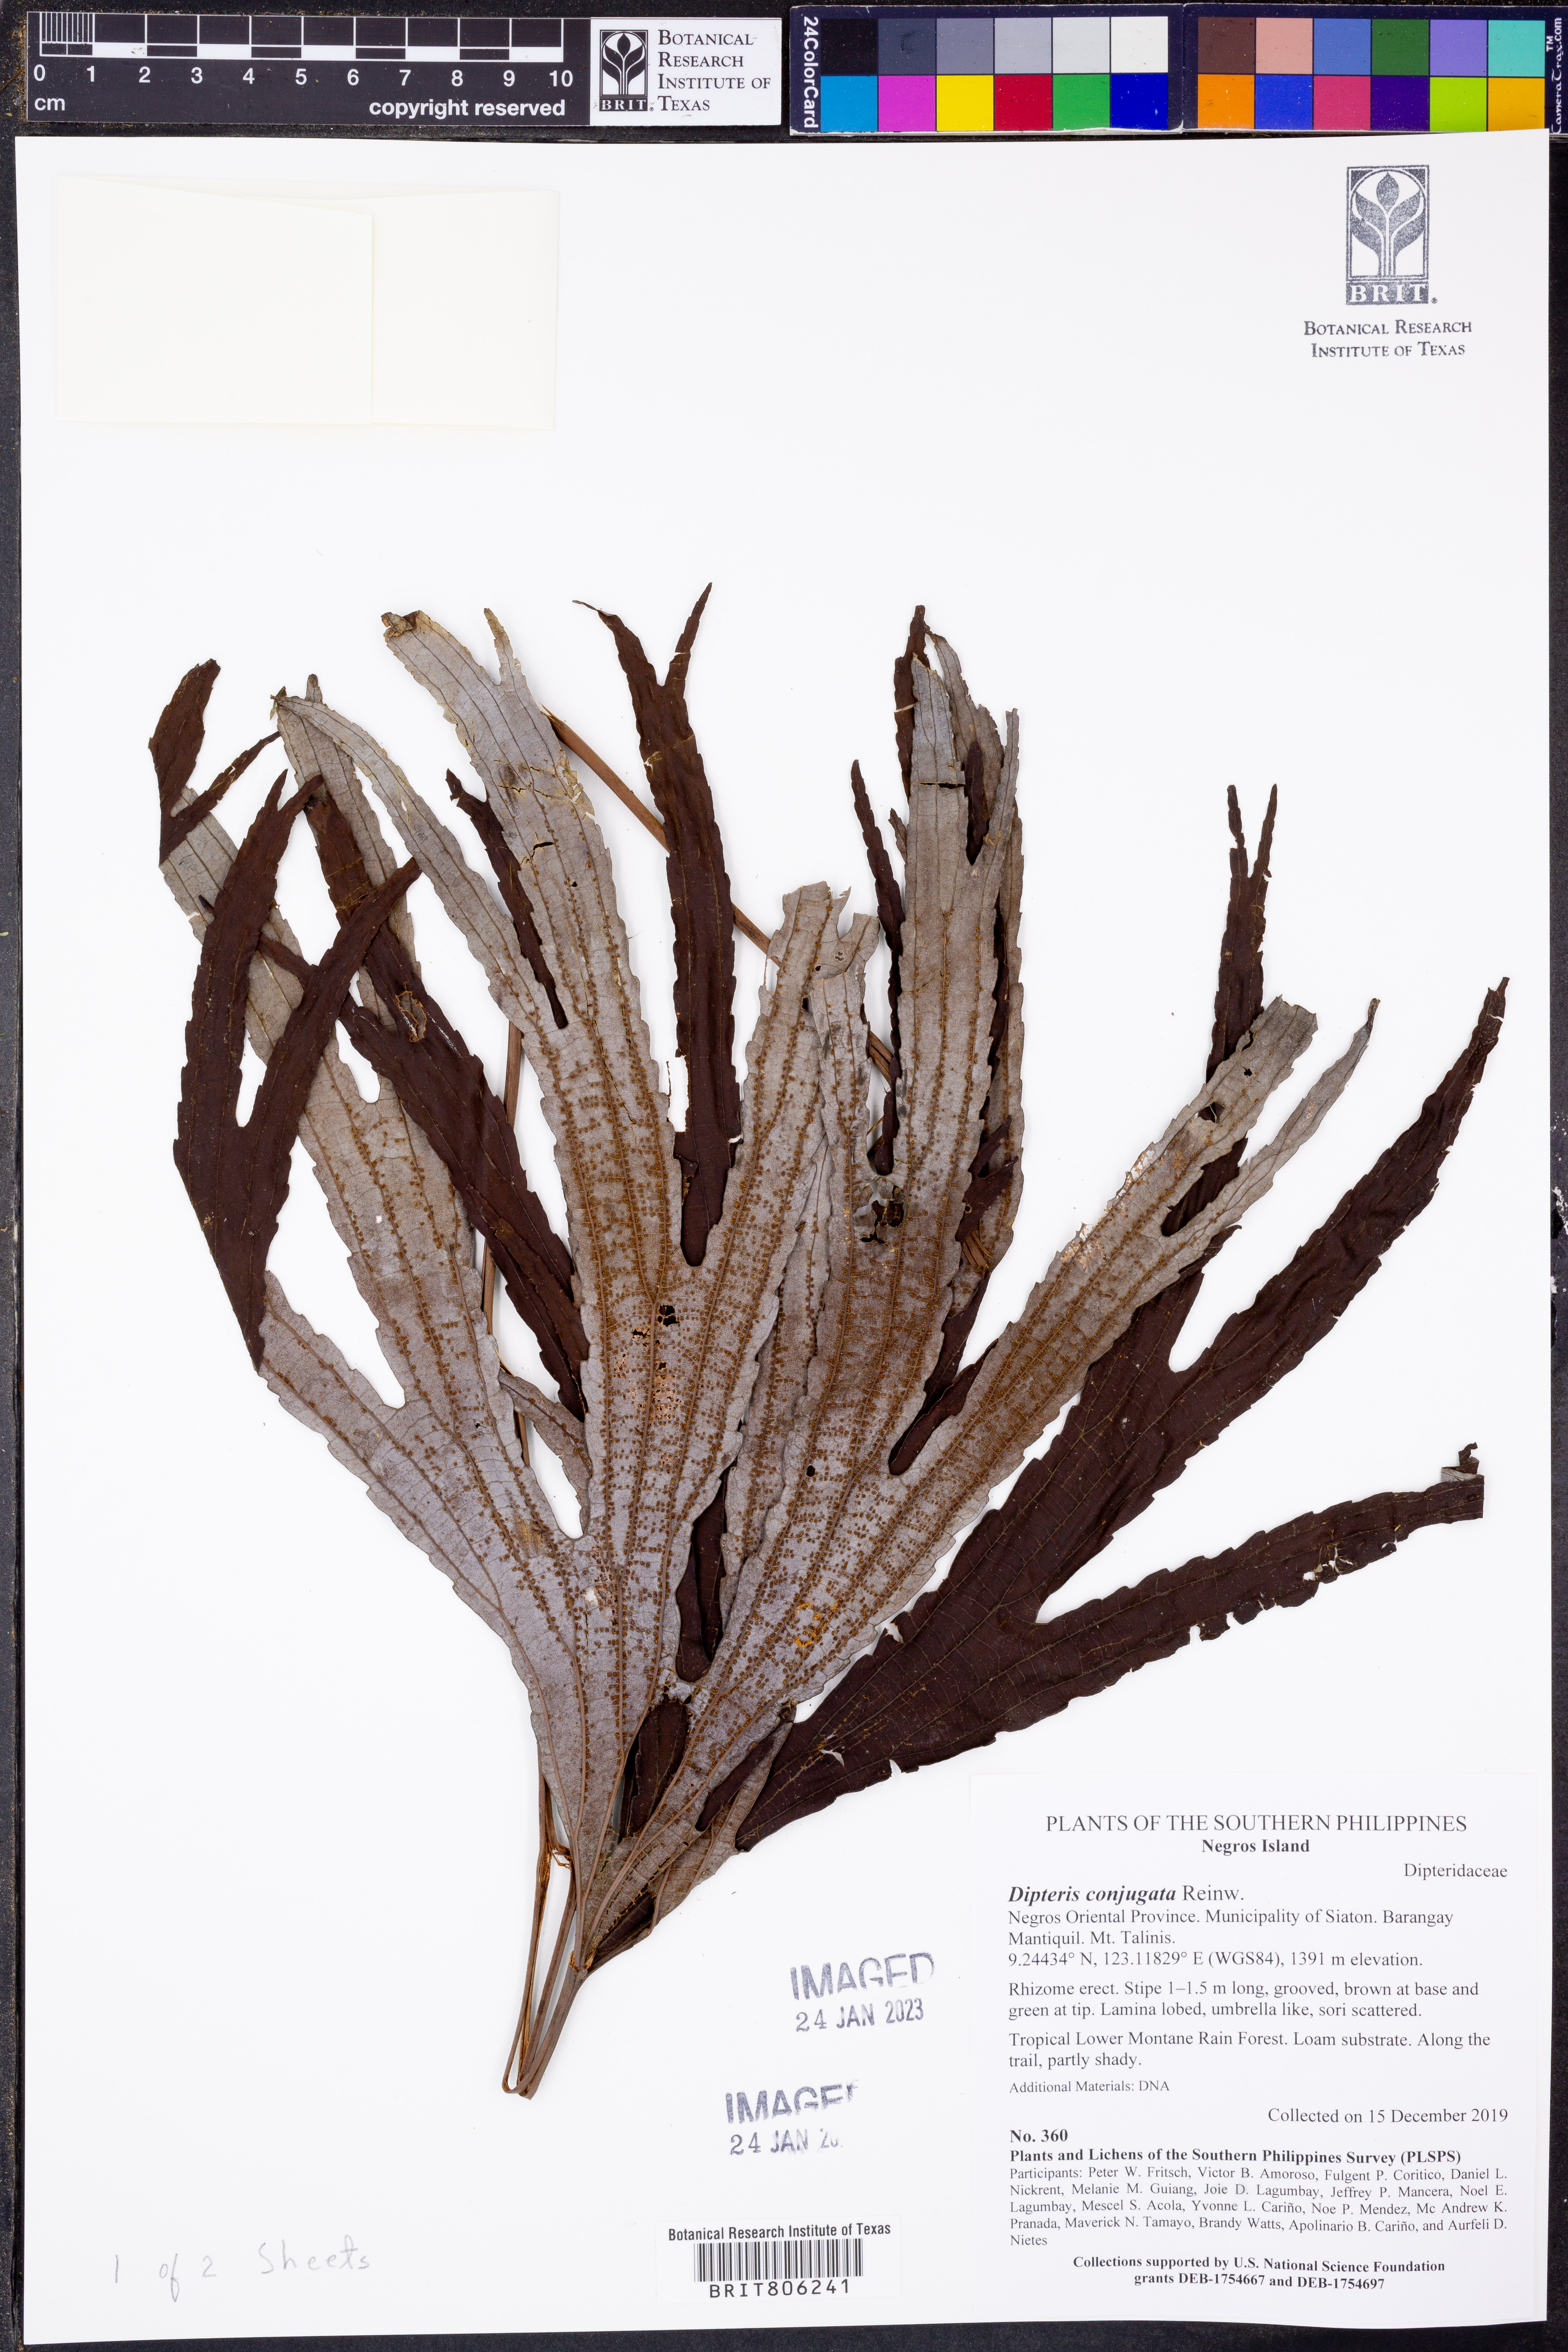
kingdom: Plantae
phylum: Tracheophyta
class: Polypodiopsida
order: Gleicheniales
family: Dipteridaceae
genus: Dipteris
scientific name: Dipteris conjugata
